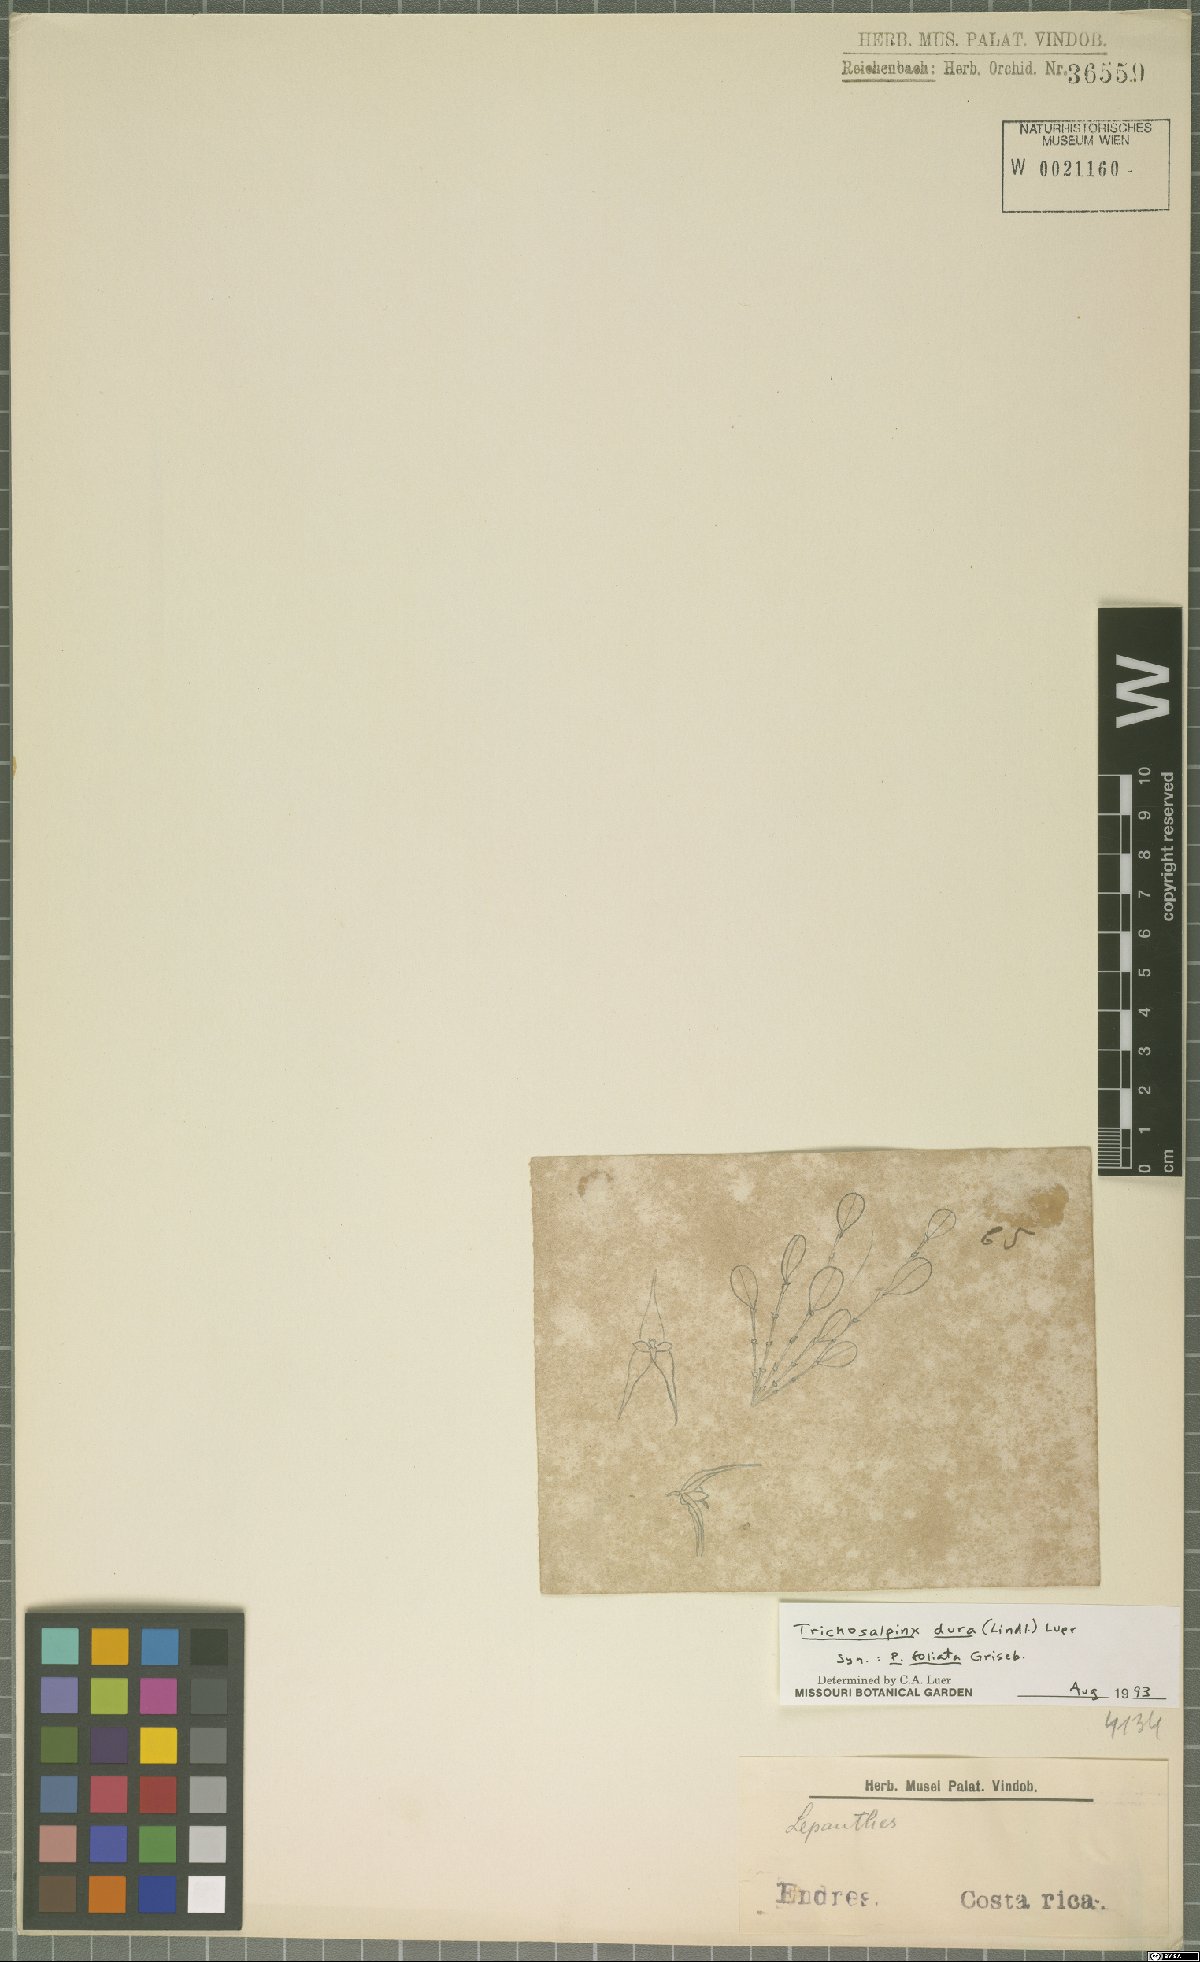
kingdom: Plantae
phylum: Tracheophyta
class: Liliopsida
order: Asparagales
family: Orchidaceae
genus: Trichosalpinx
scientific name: Trichosalpinx dura
